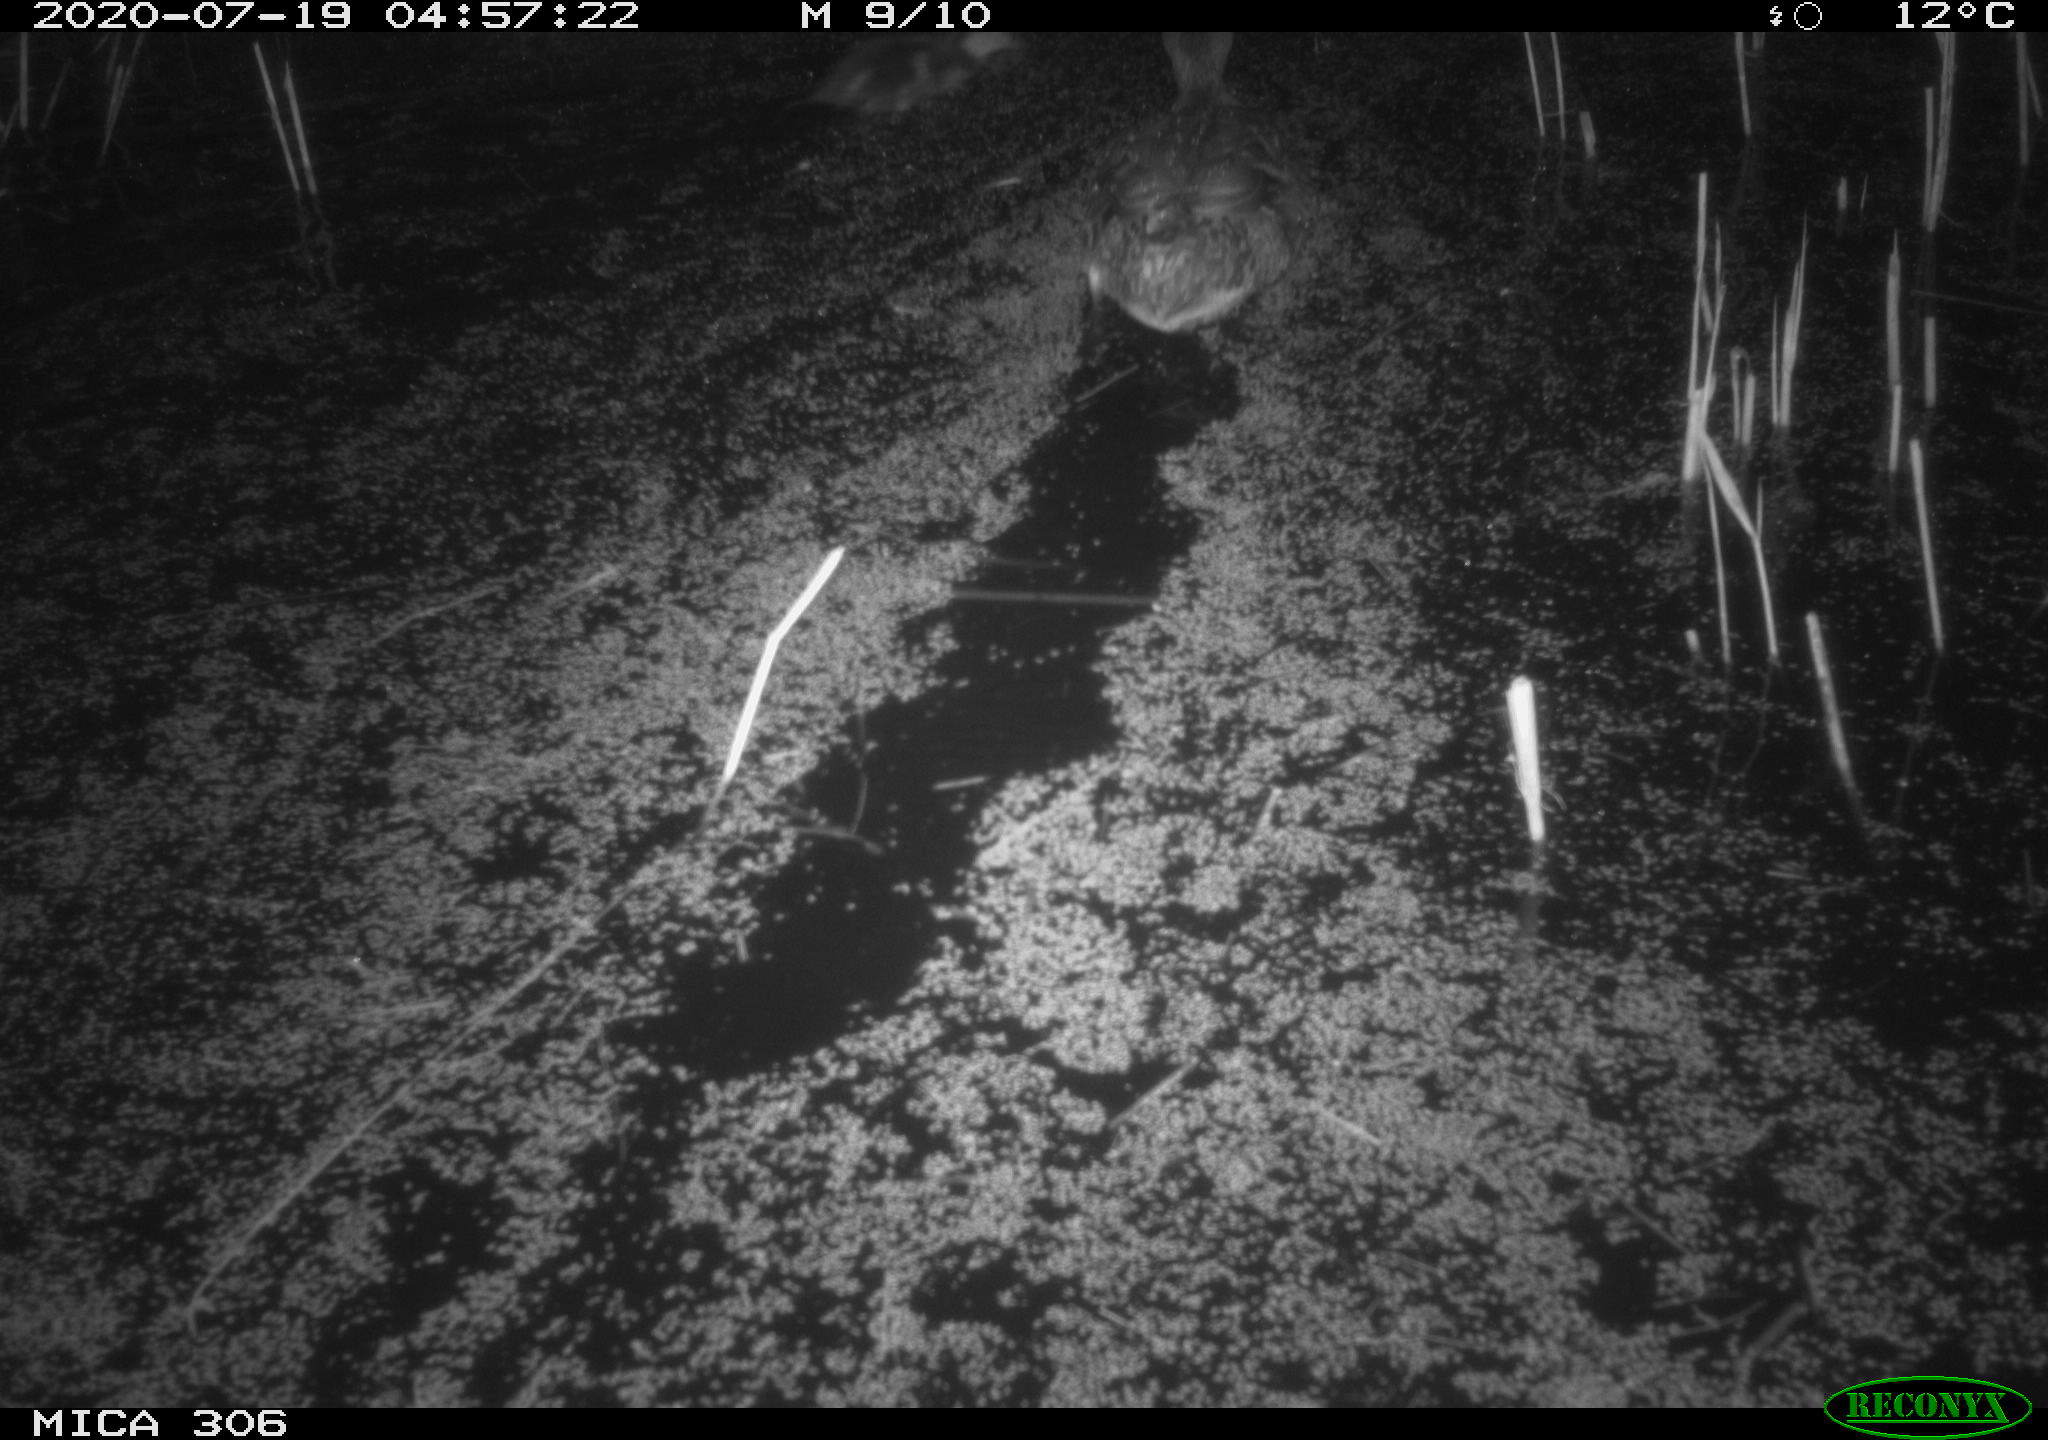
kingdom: Animalia
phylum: Chordata
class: Aves
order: Anseriformes
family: Anatidae
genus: Anas
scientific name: Anas platyrhynchos
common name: Mallard
